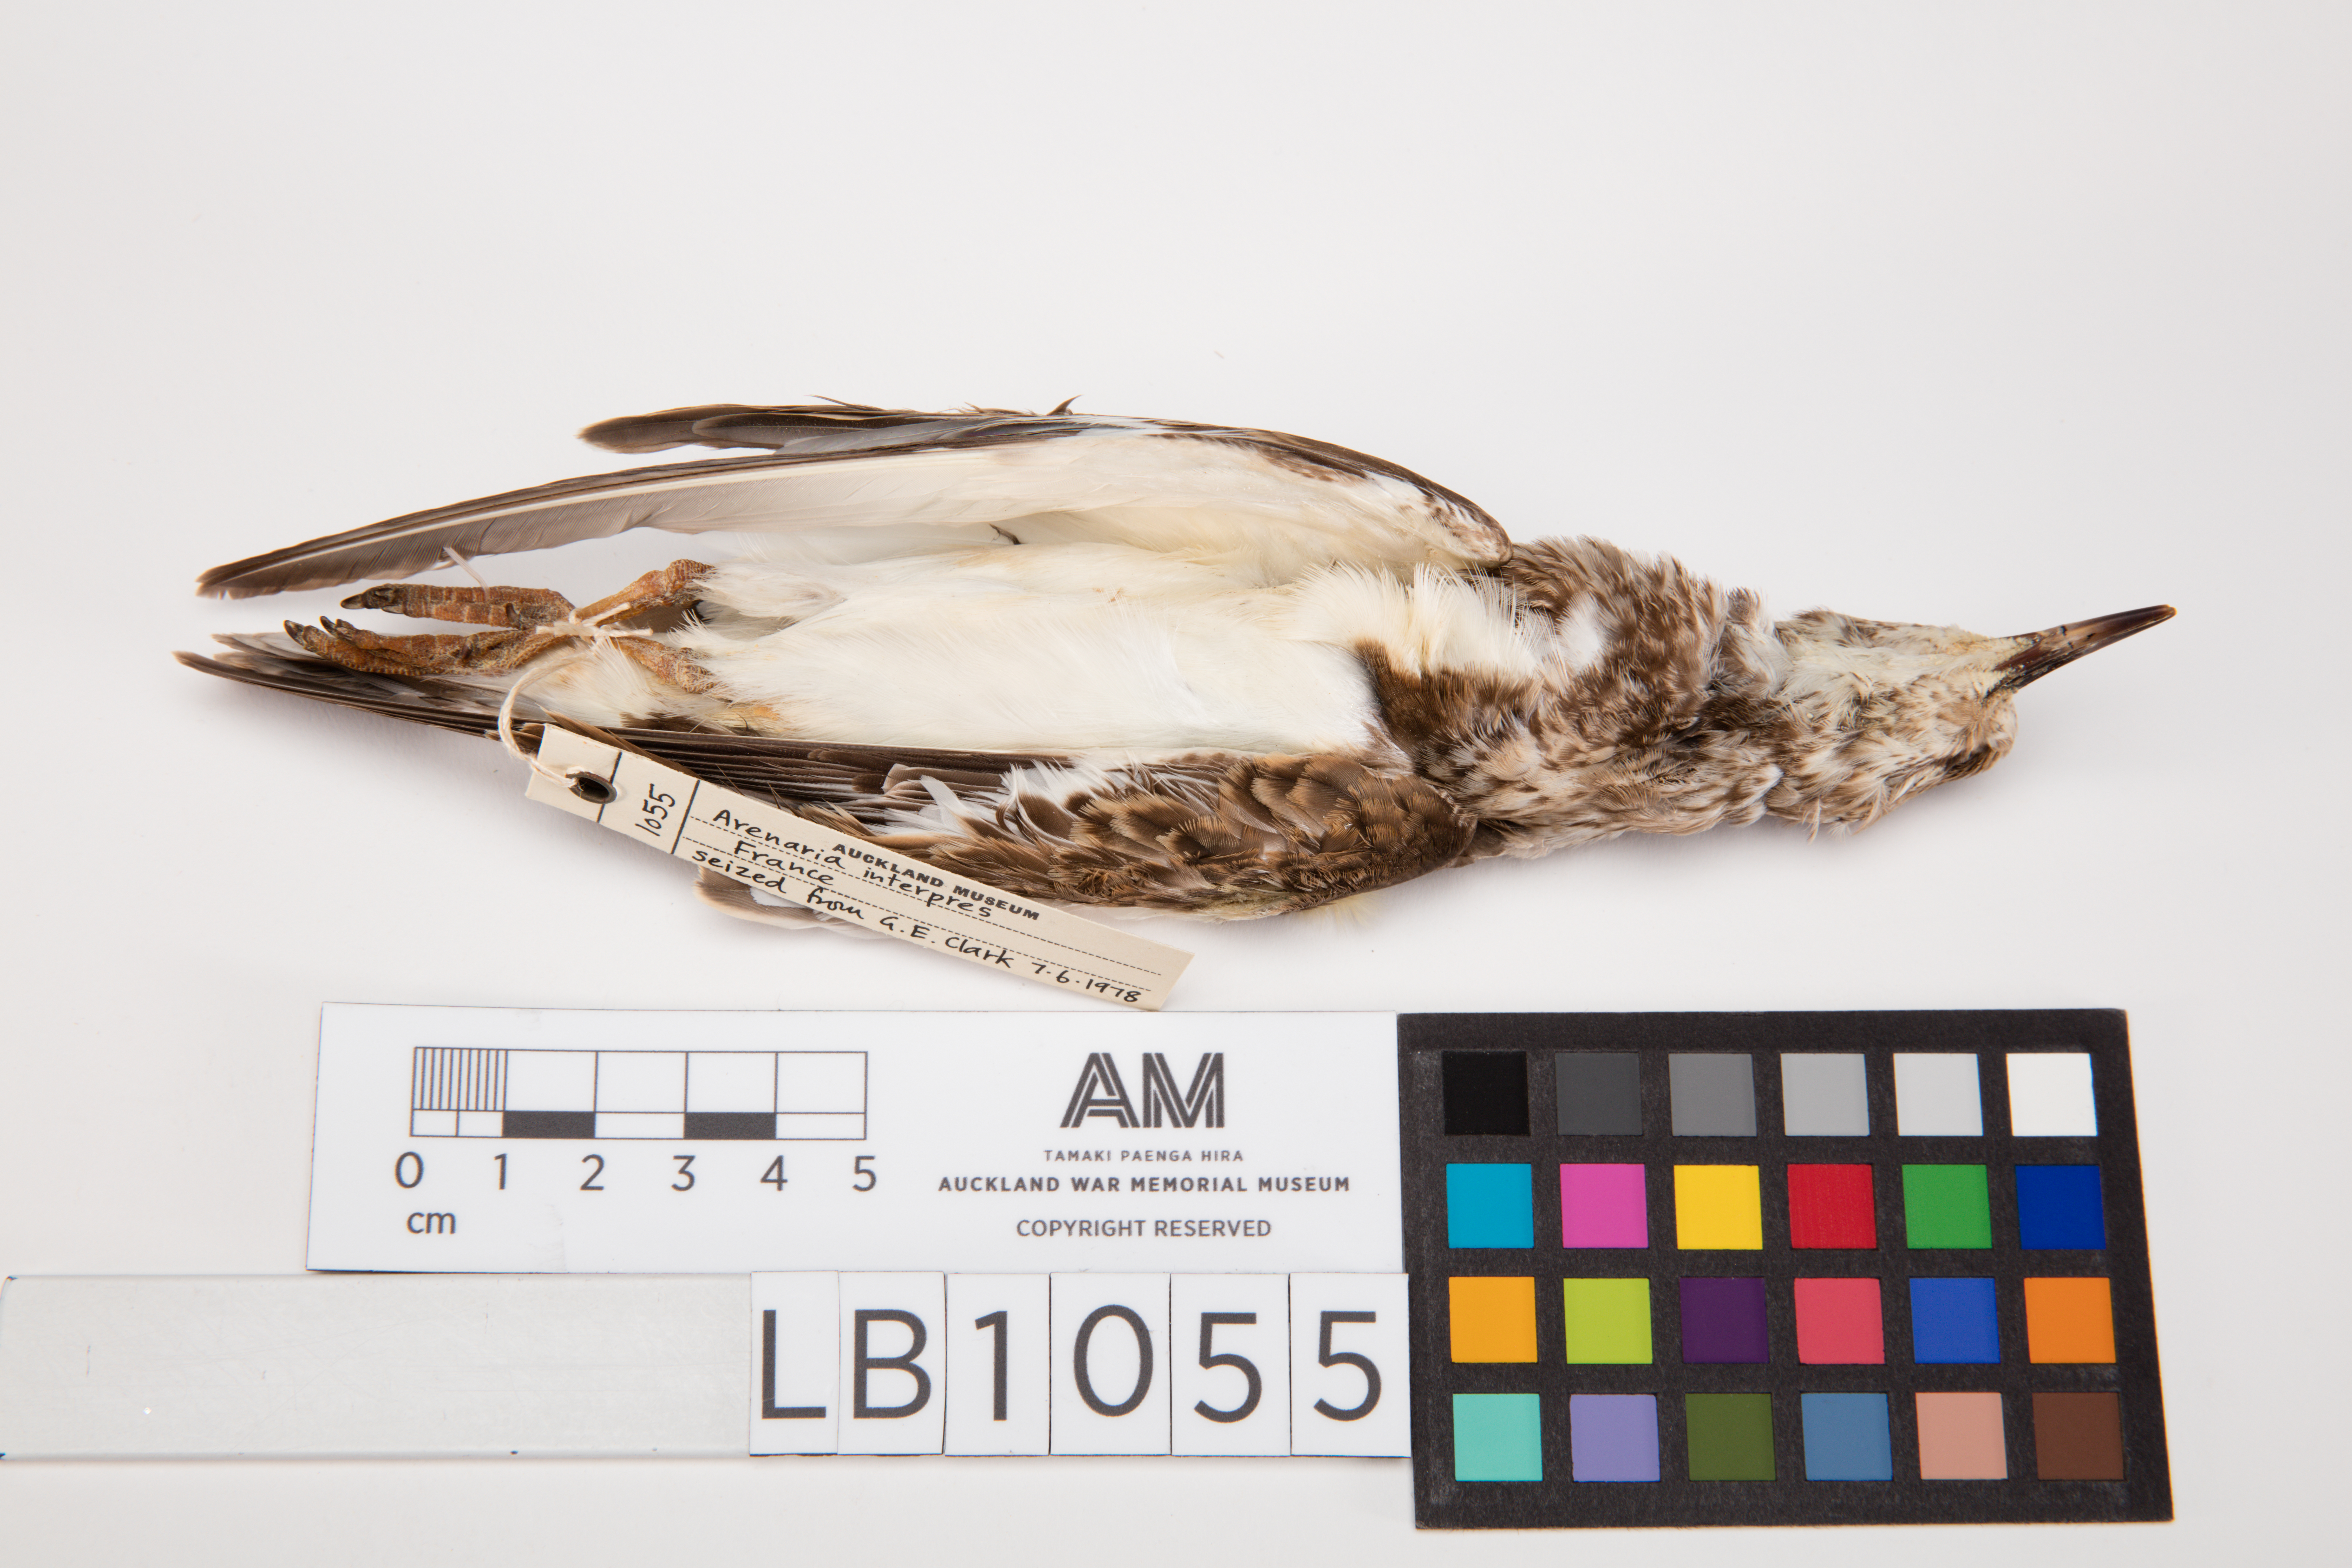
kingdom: Animalia
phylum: Chordata
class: Aves
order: Charadriiformes
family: Scolopacidae
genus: Arenaria
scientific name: Arenaria interpres
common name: Ruddy turnstone
